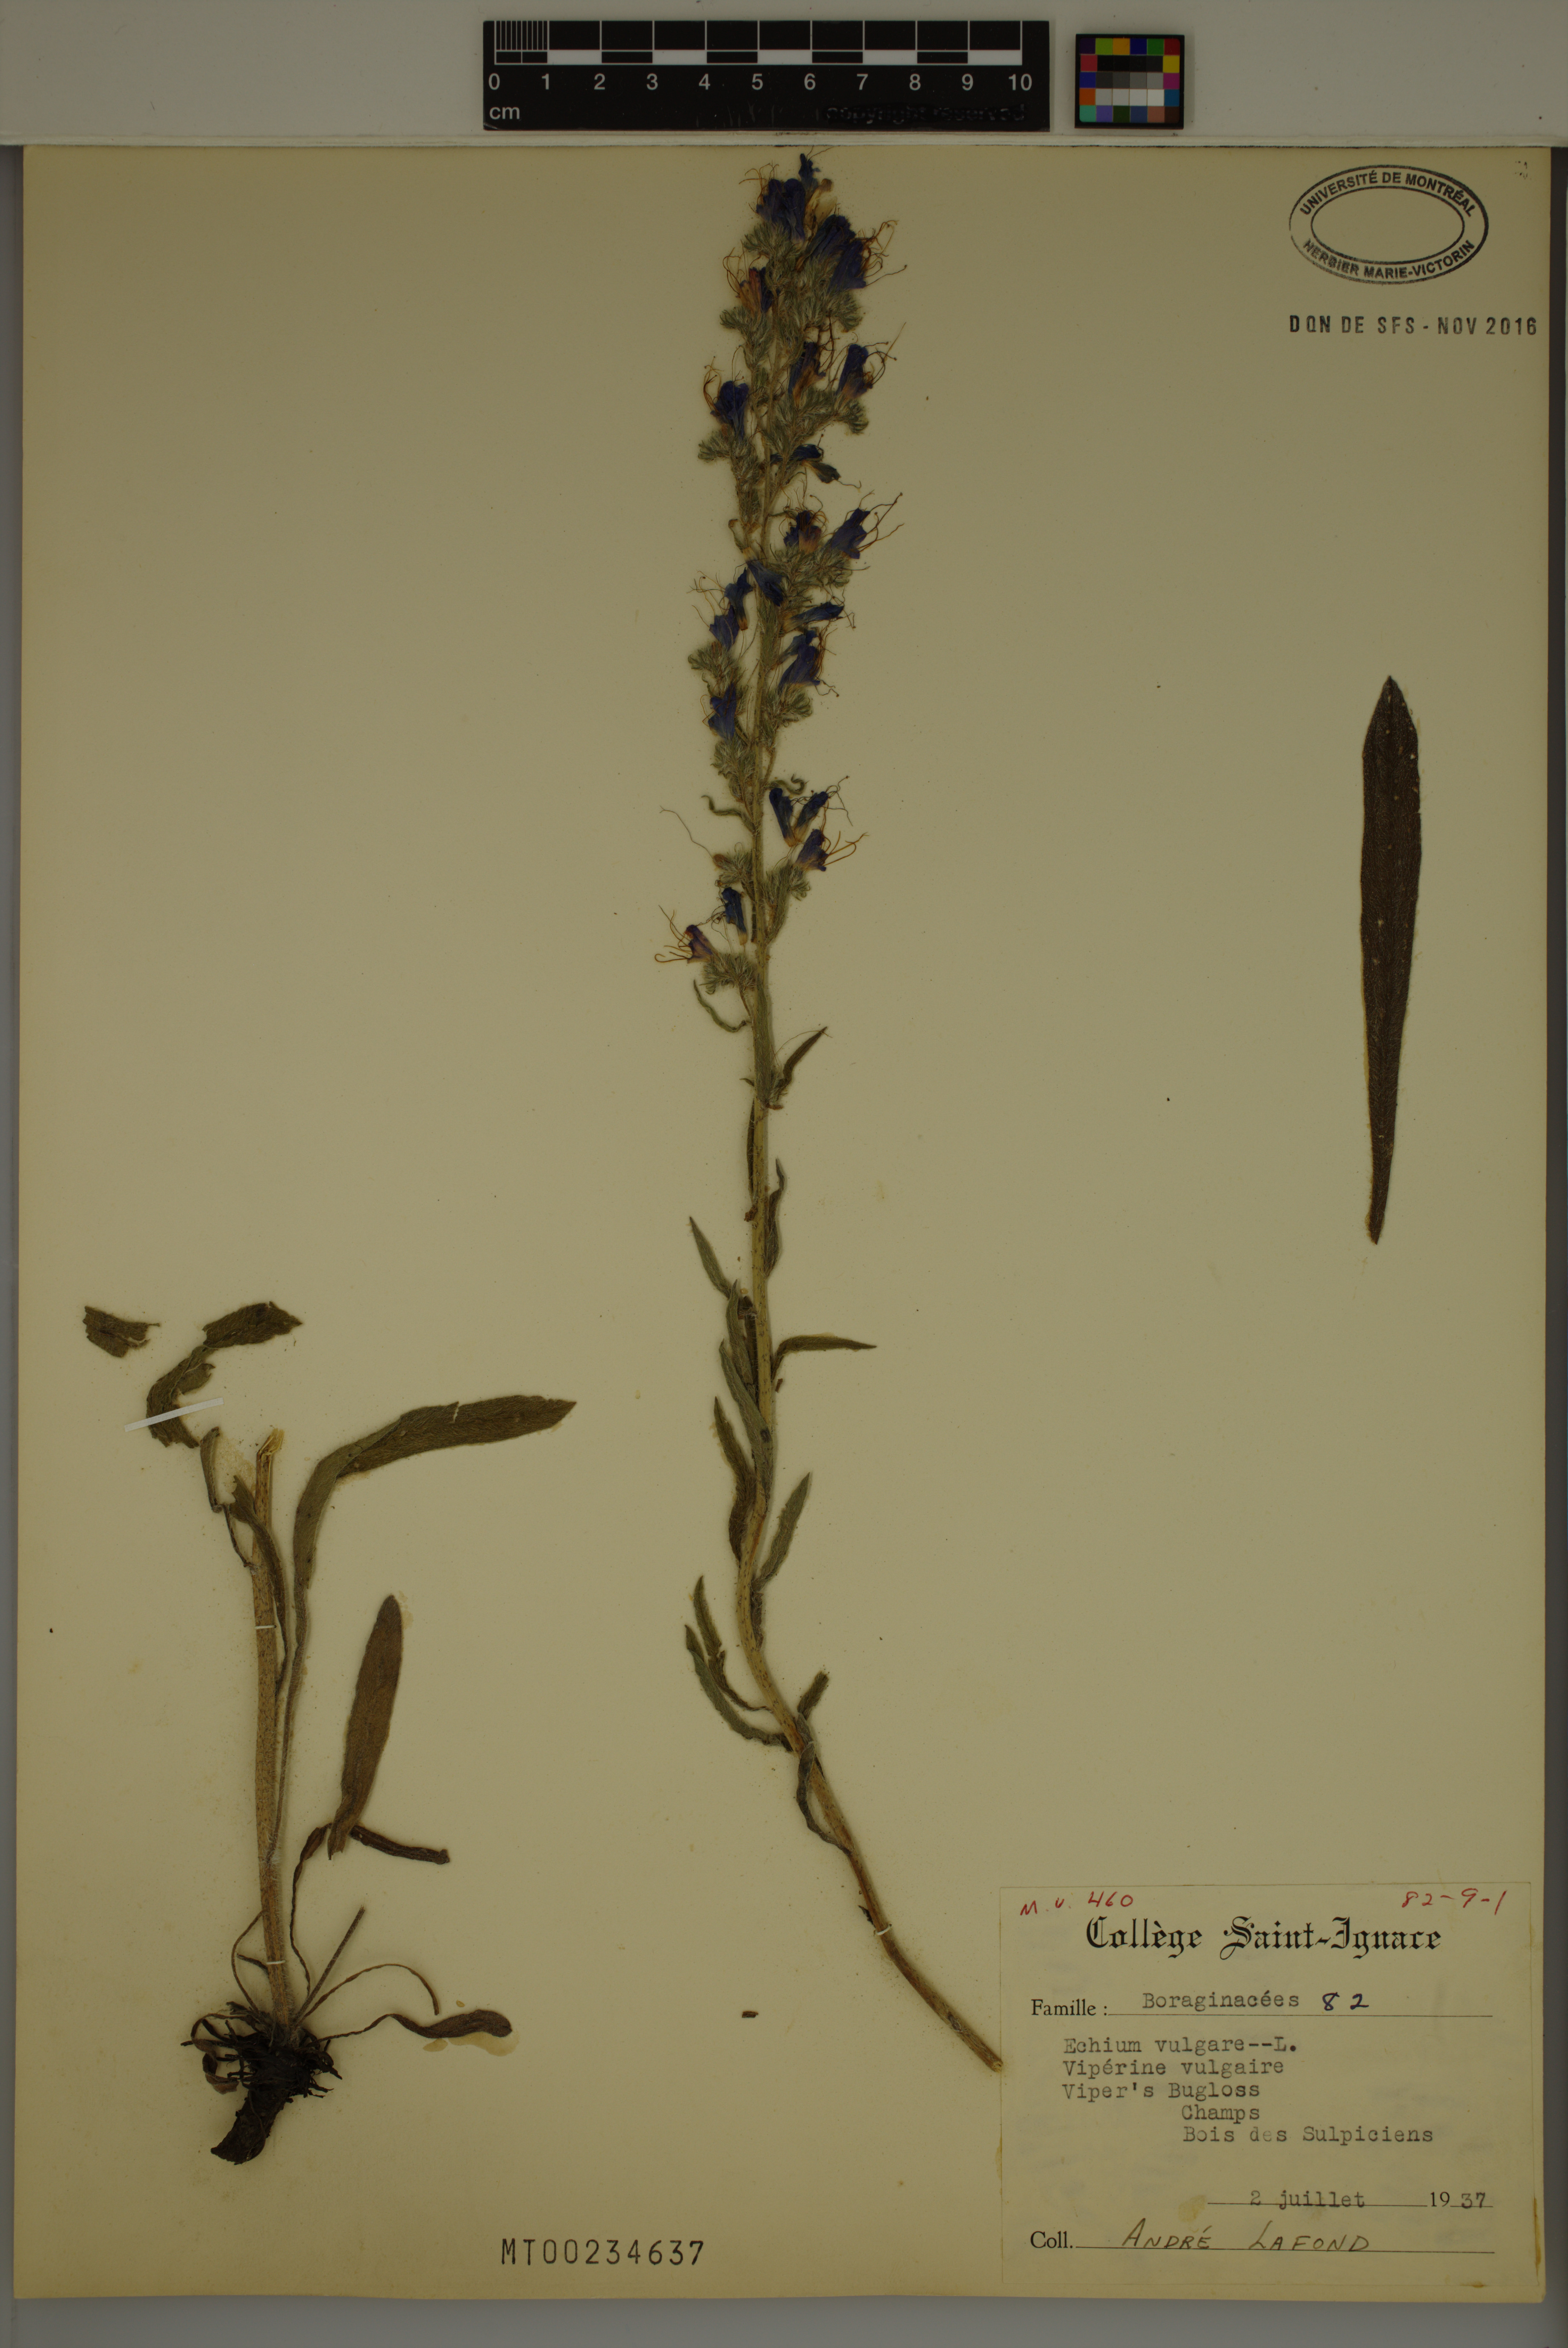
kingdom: Plantae
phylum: Tracheophyta
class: Magnoliopsida
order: Boraginales
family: Boraginaceae
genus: Echium
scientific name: Echium vulgare
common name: Common viper's bugloss
